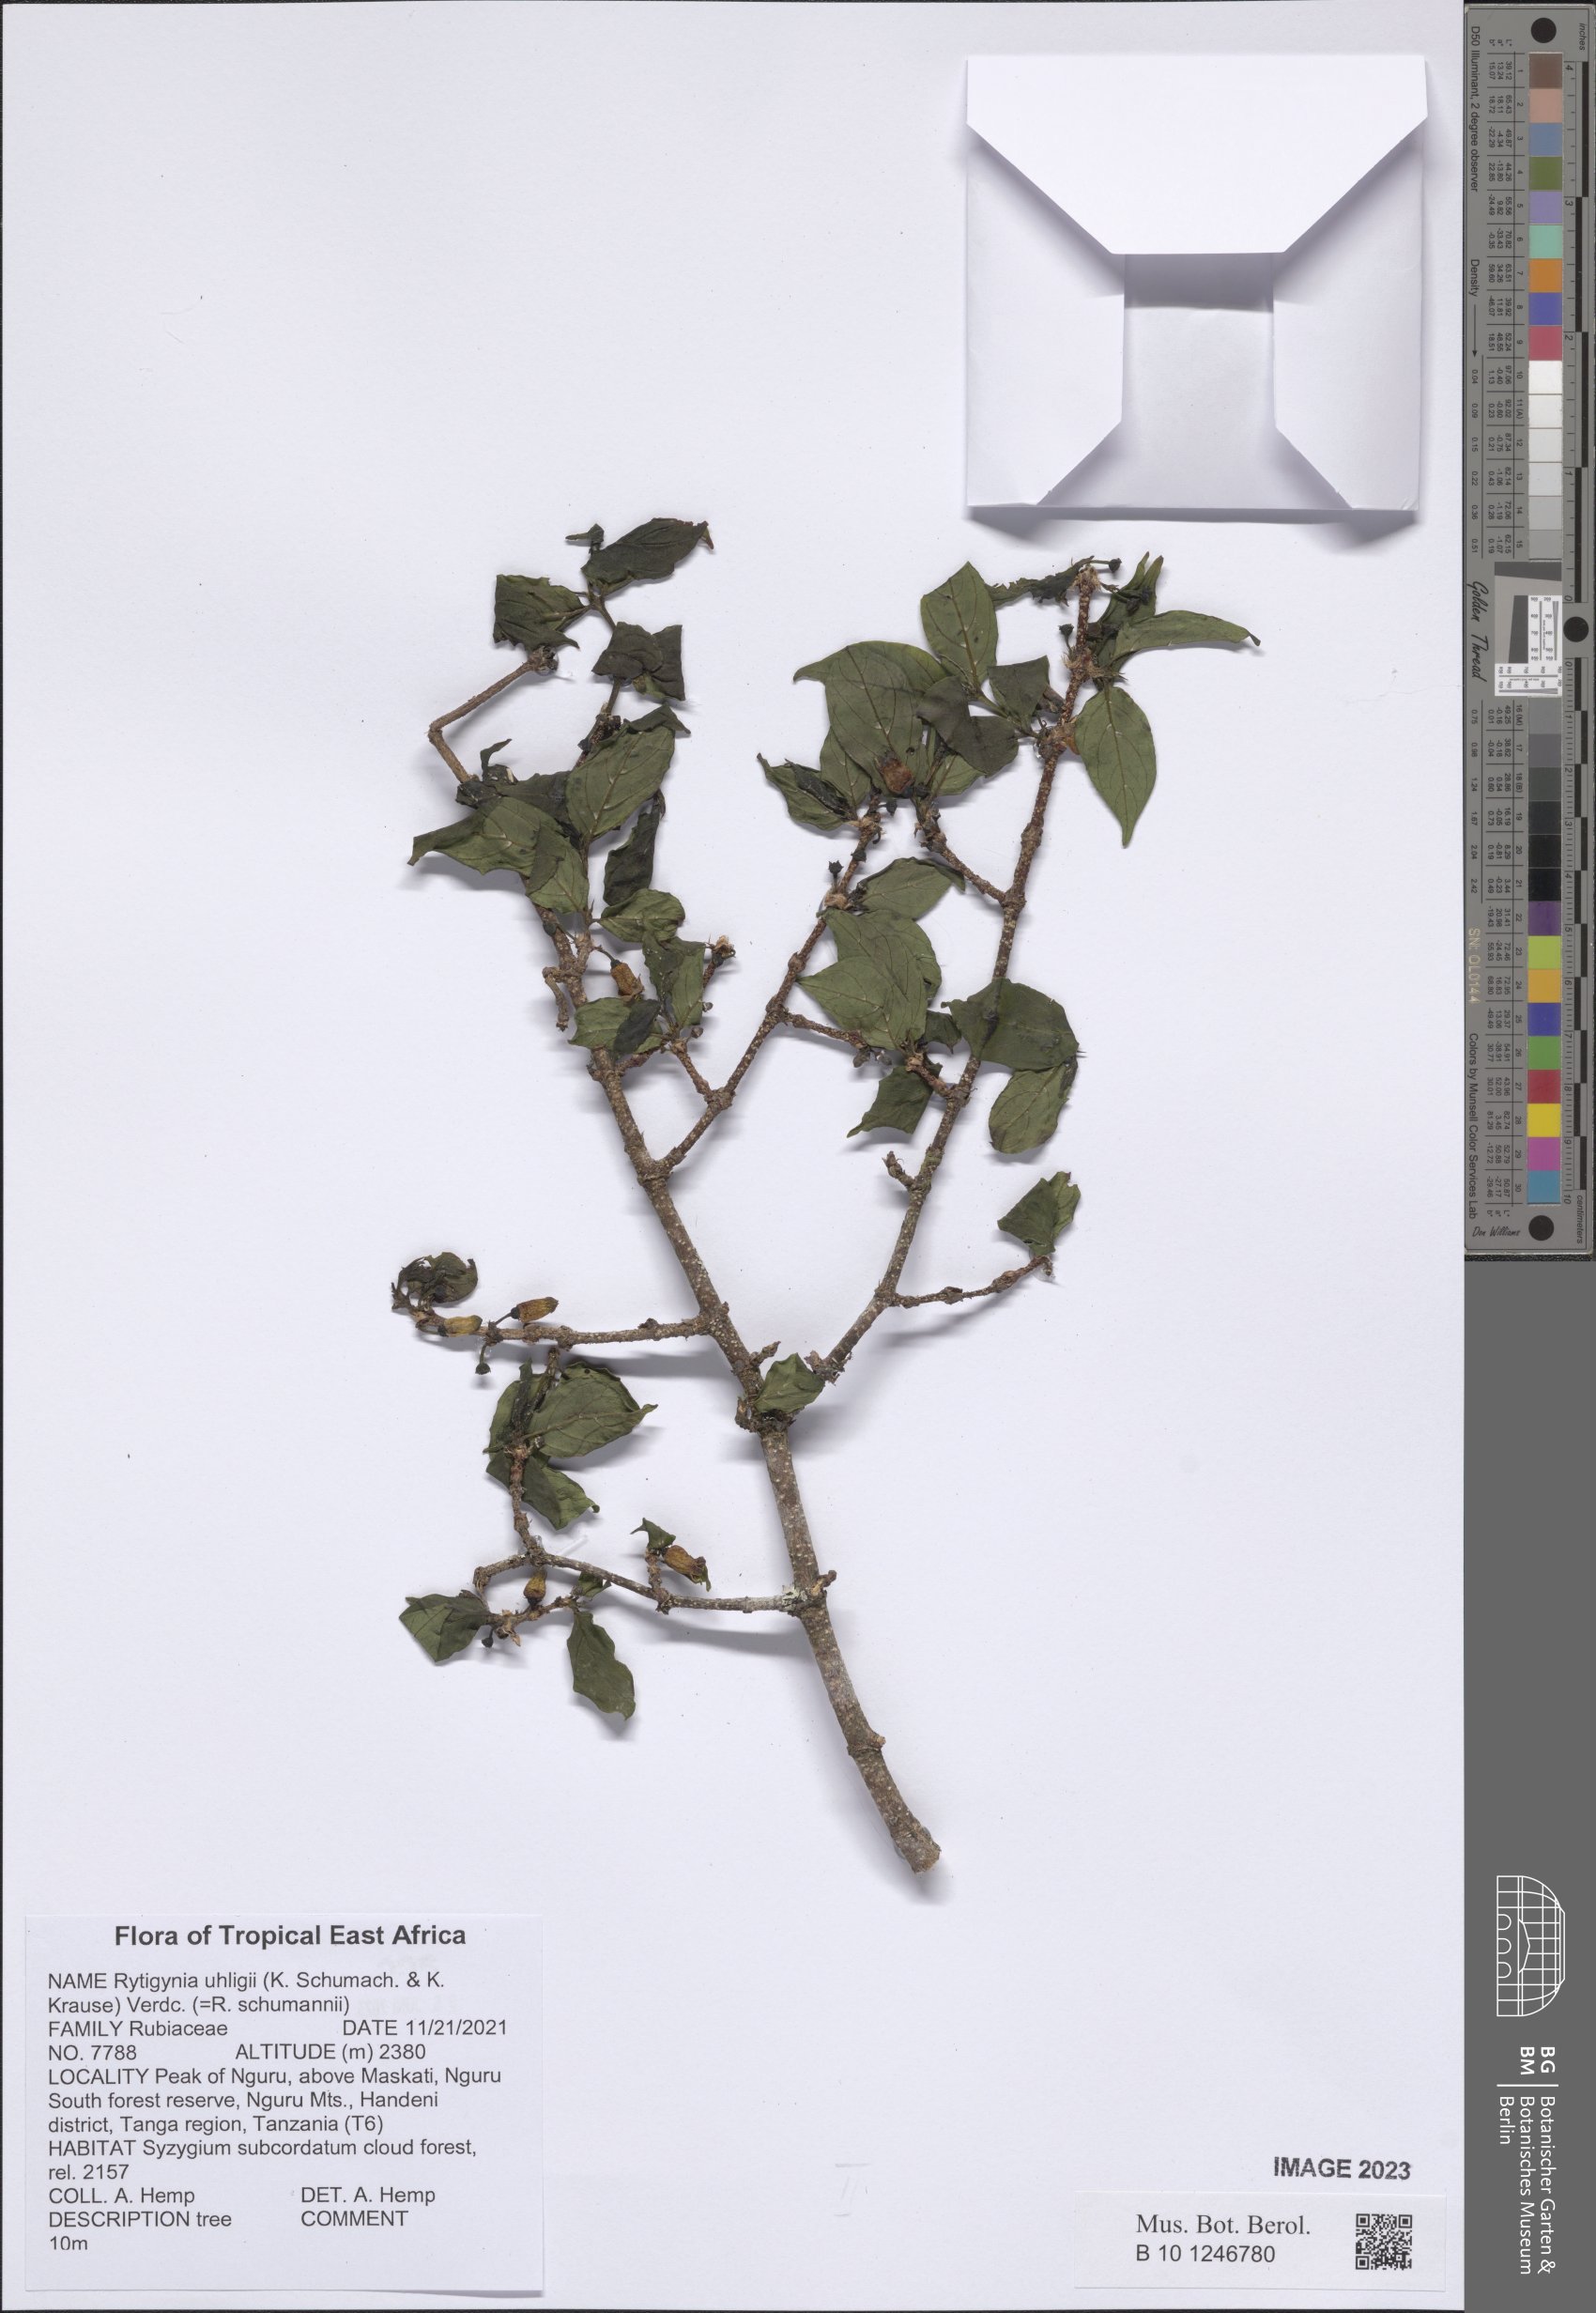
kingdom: Plantae
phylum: Tracheophyta
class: Magnoliopsida
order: Gentianales
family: Rubiaceae
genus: Rytigynia
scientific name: Rytigynia uhligii
